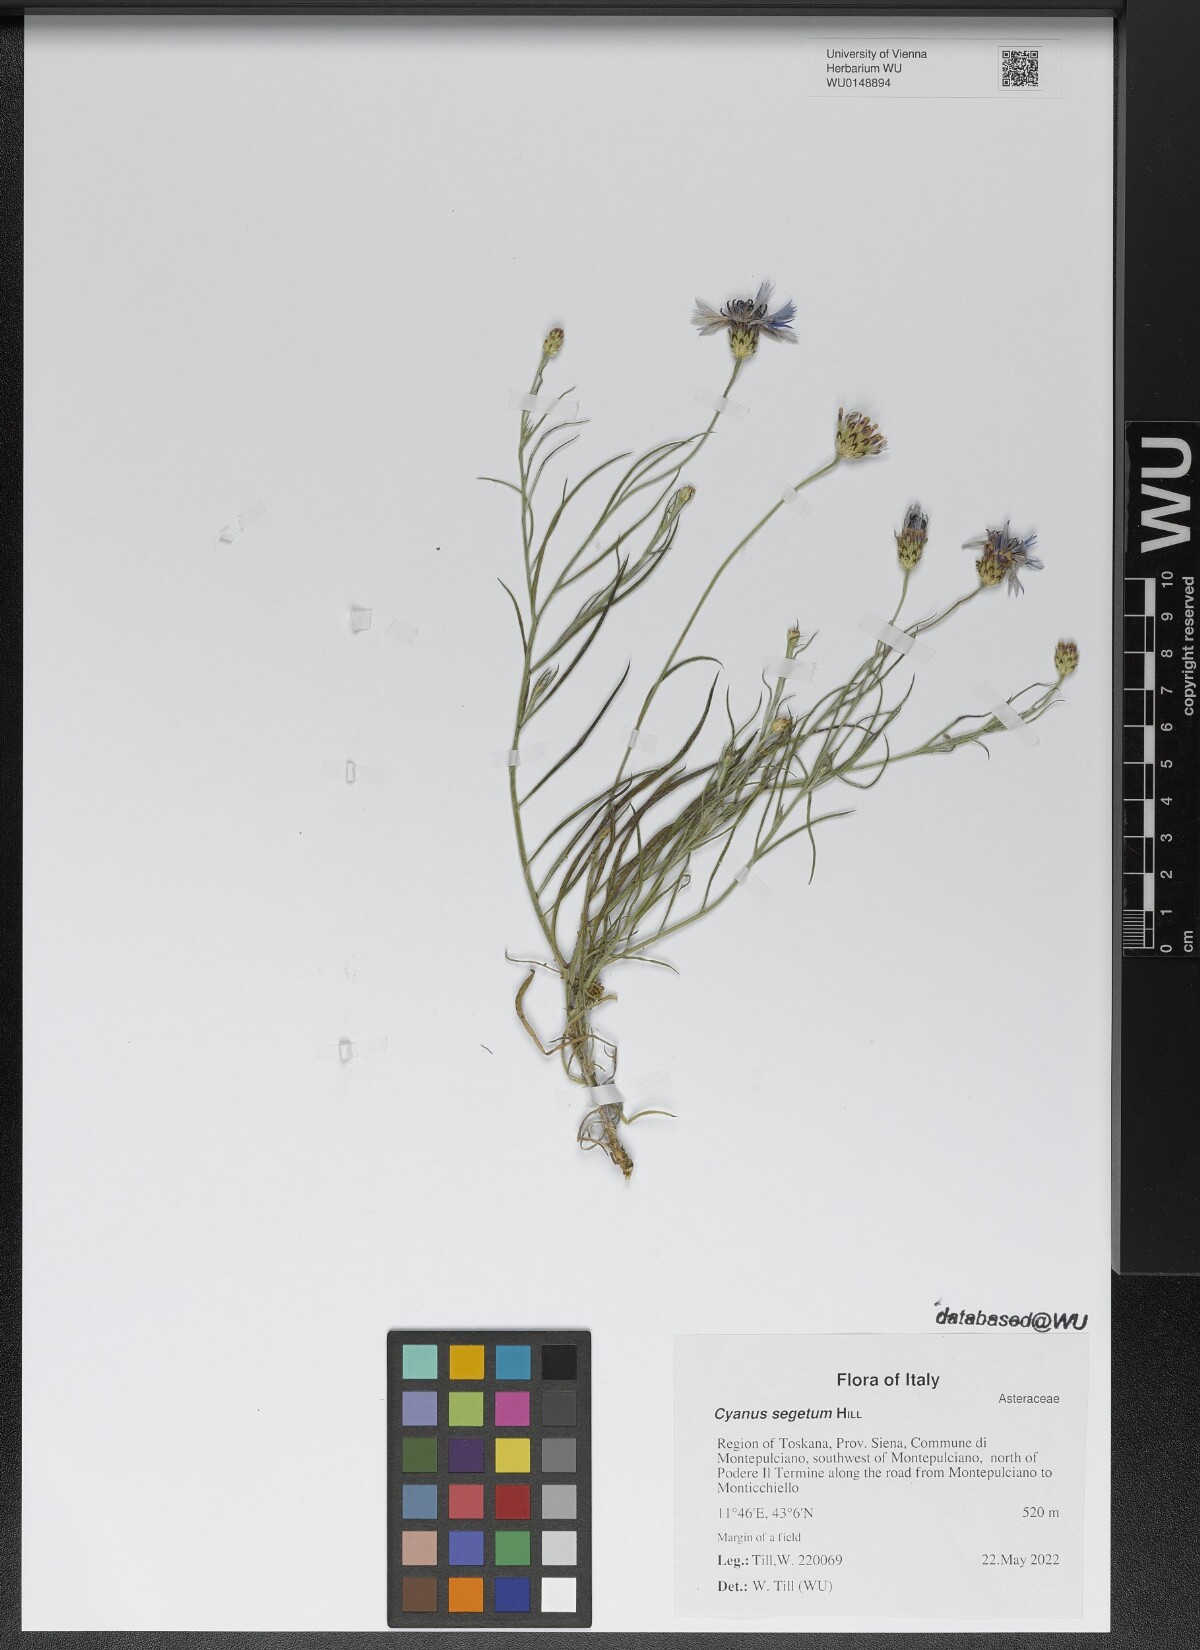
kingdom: Plantae
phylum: Tracheophyta
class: Magnoliopsida
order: Asterales
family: Asteraceae
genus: Centaurea
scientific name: Centaurea cyanus
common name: Cornflower
